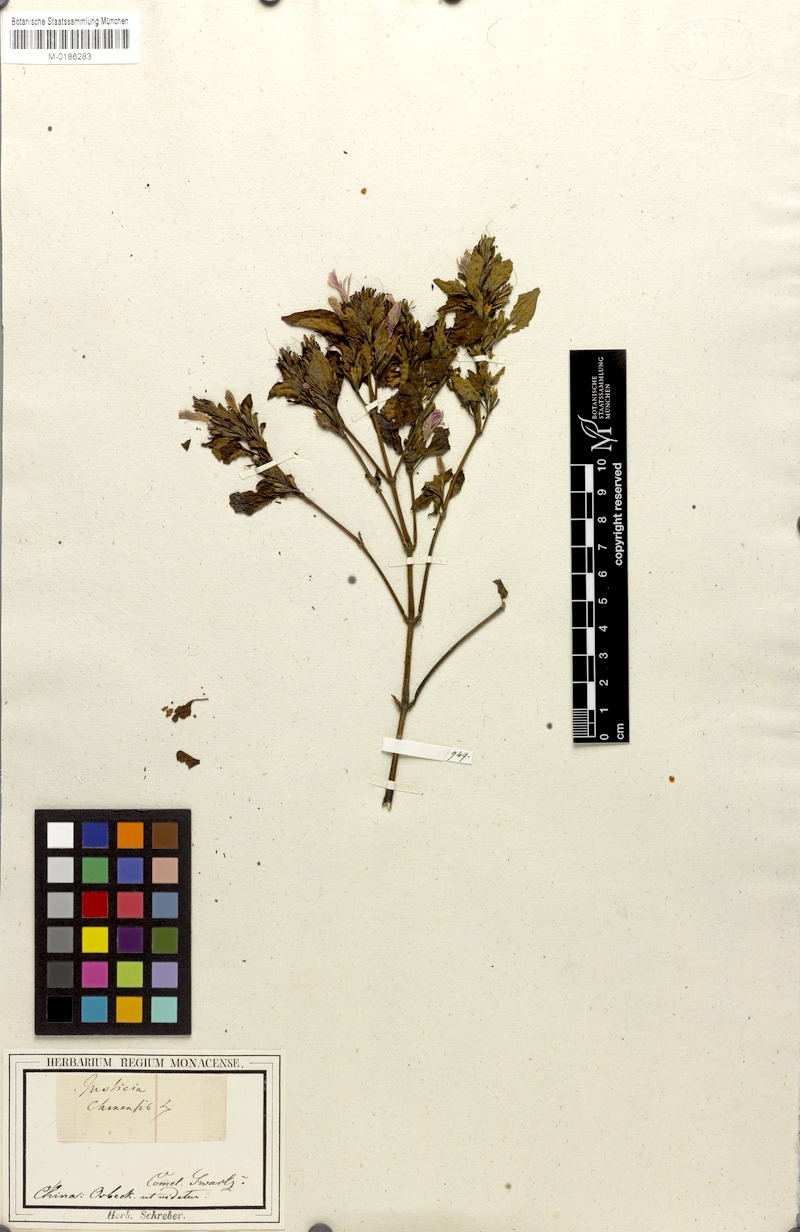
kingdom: Plantae
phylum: Tracheophyta
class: Magnoliopsida
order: Lamiales
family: Acanthaceae
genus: Dicliptera
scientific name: Dicliptera chinensis
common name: Chinese foldwing
